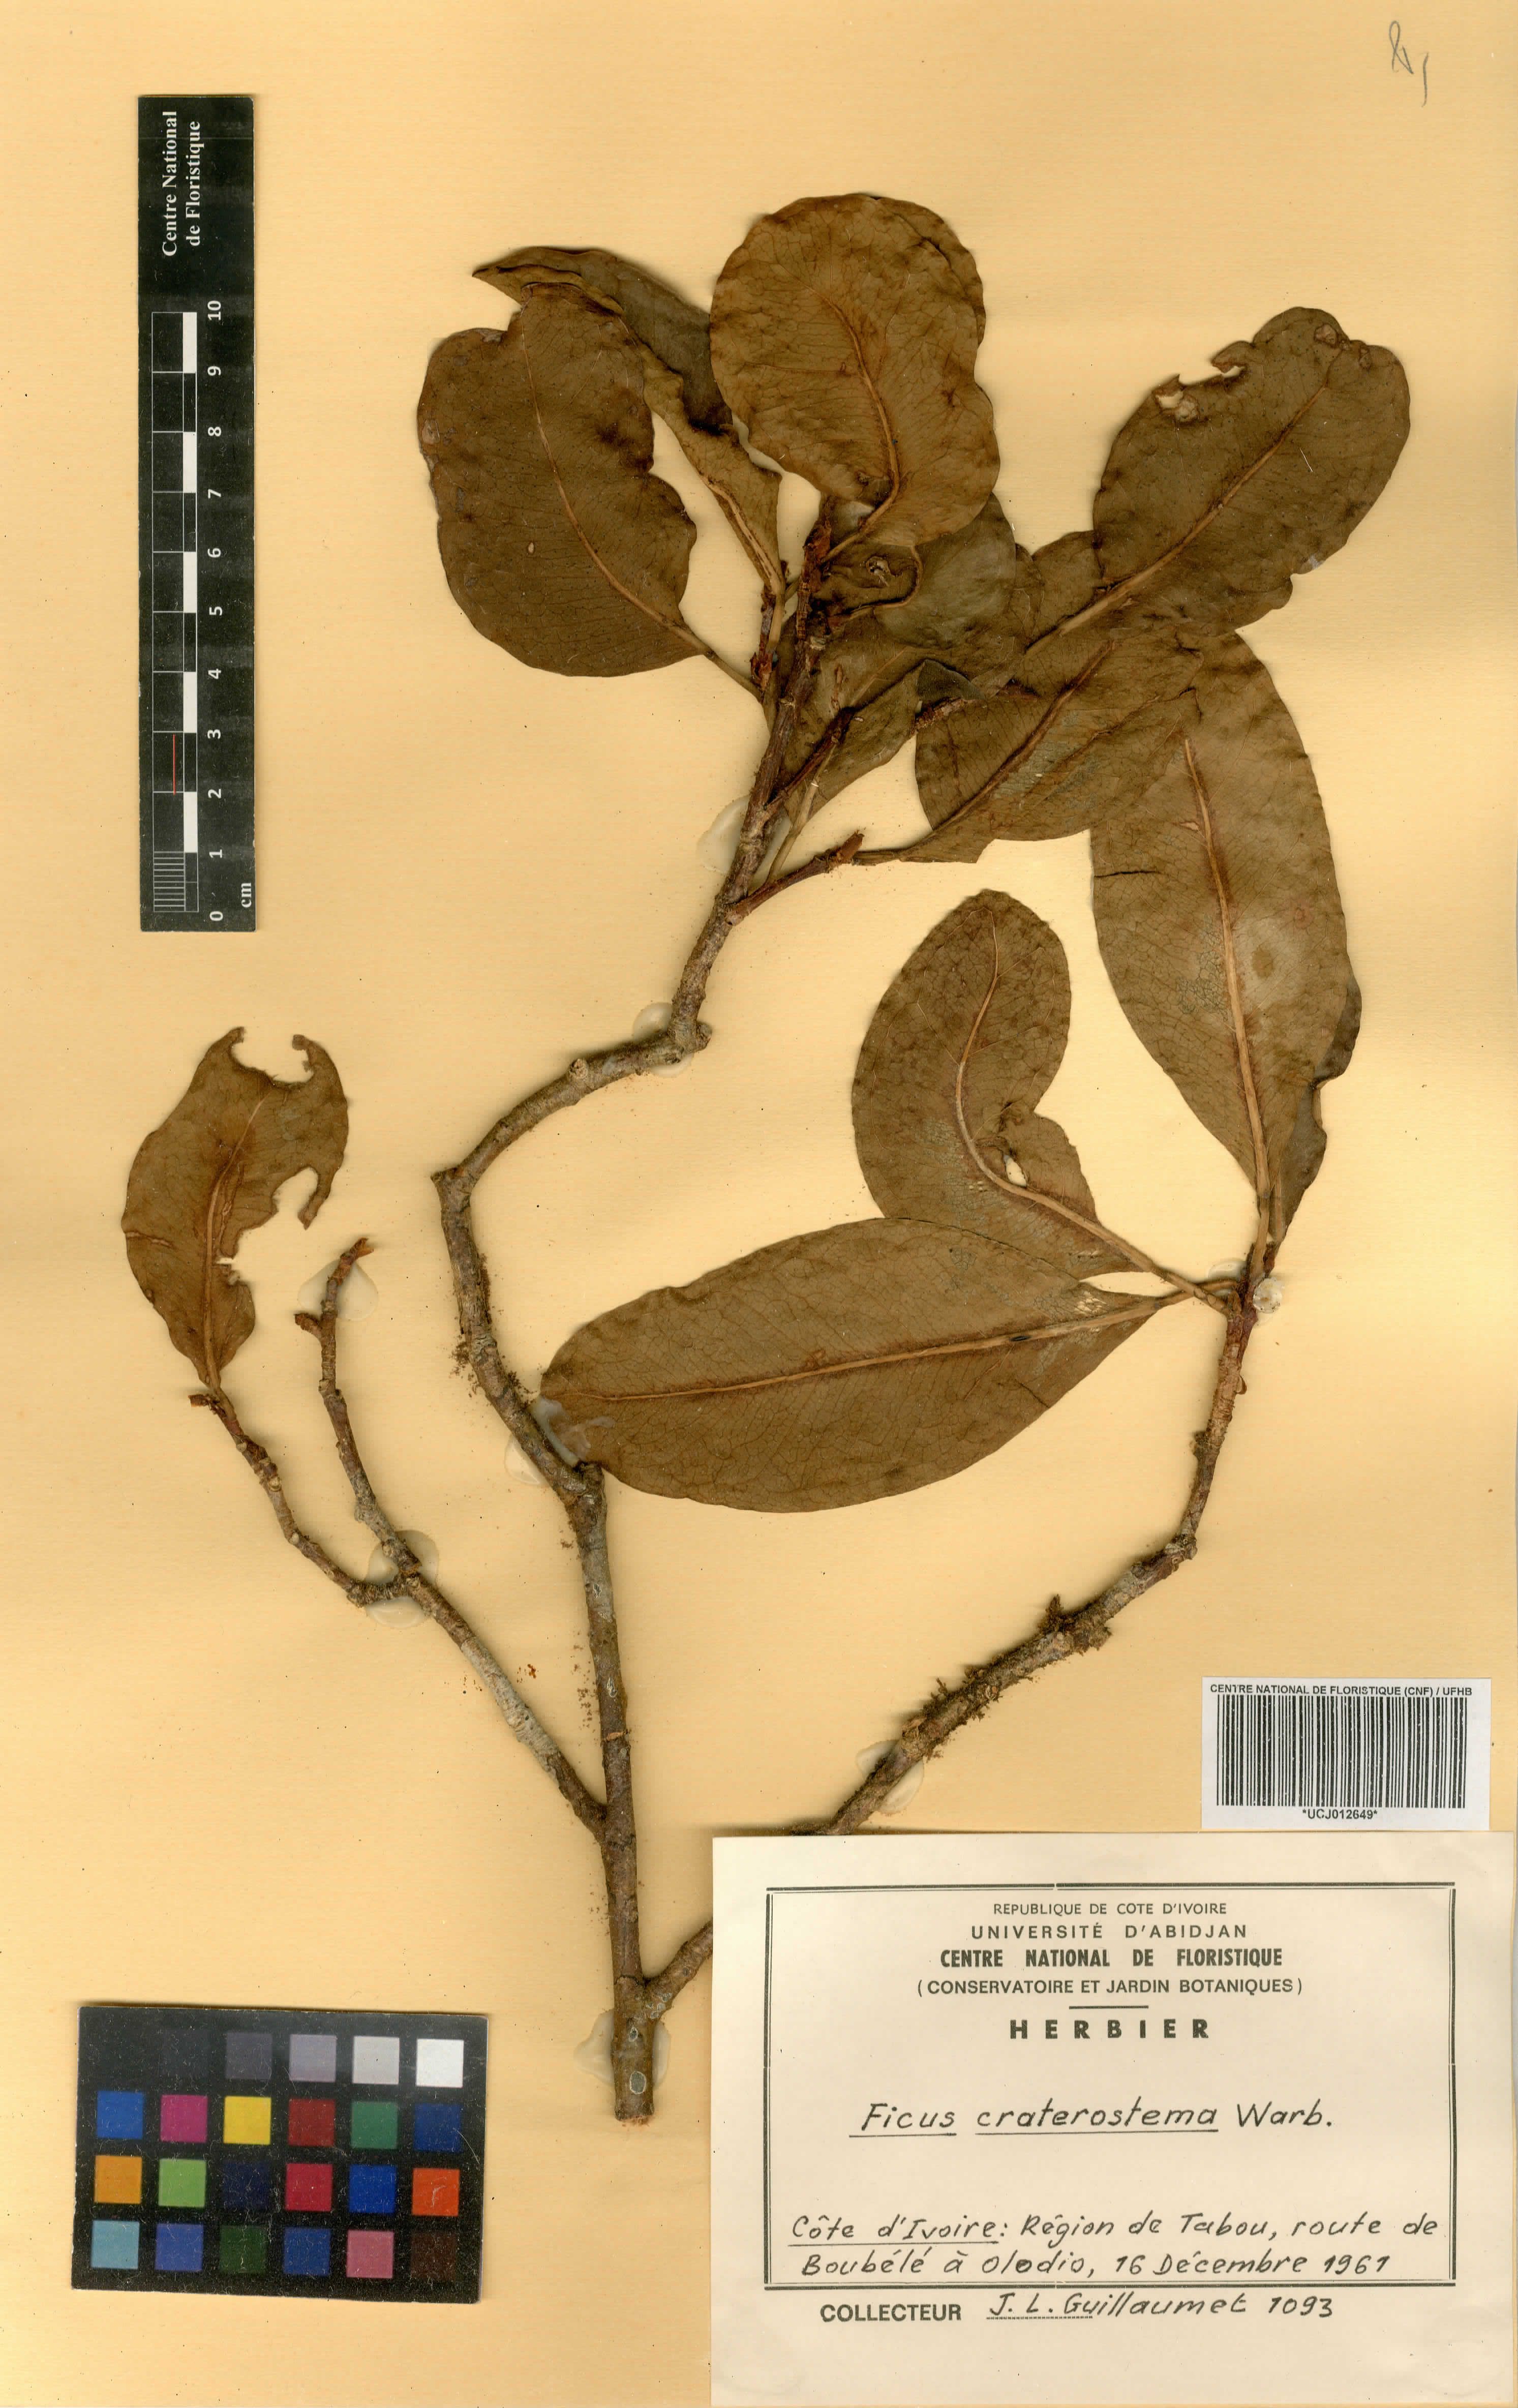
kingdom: Plantae
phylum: Tracheophyta
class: Magnoliopsida
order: Rosales
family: Moraceae
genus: Ficus
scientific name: Ficus craterostoma
